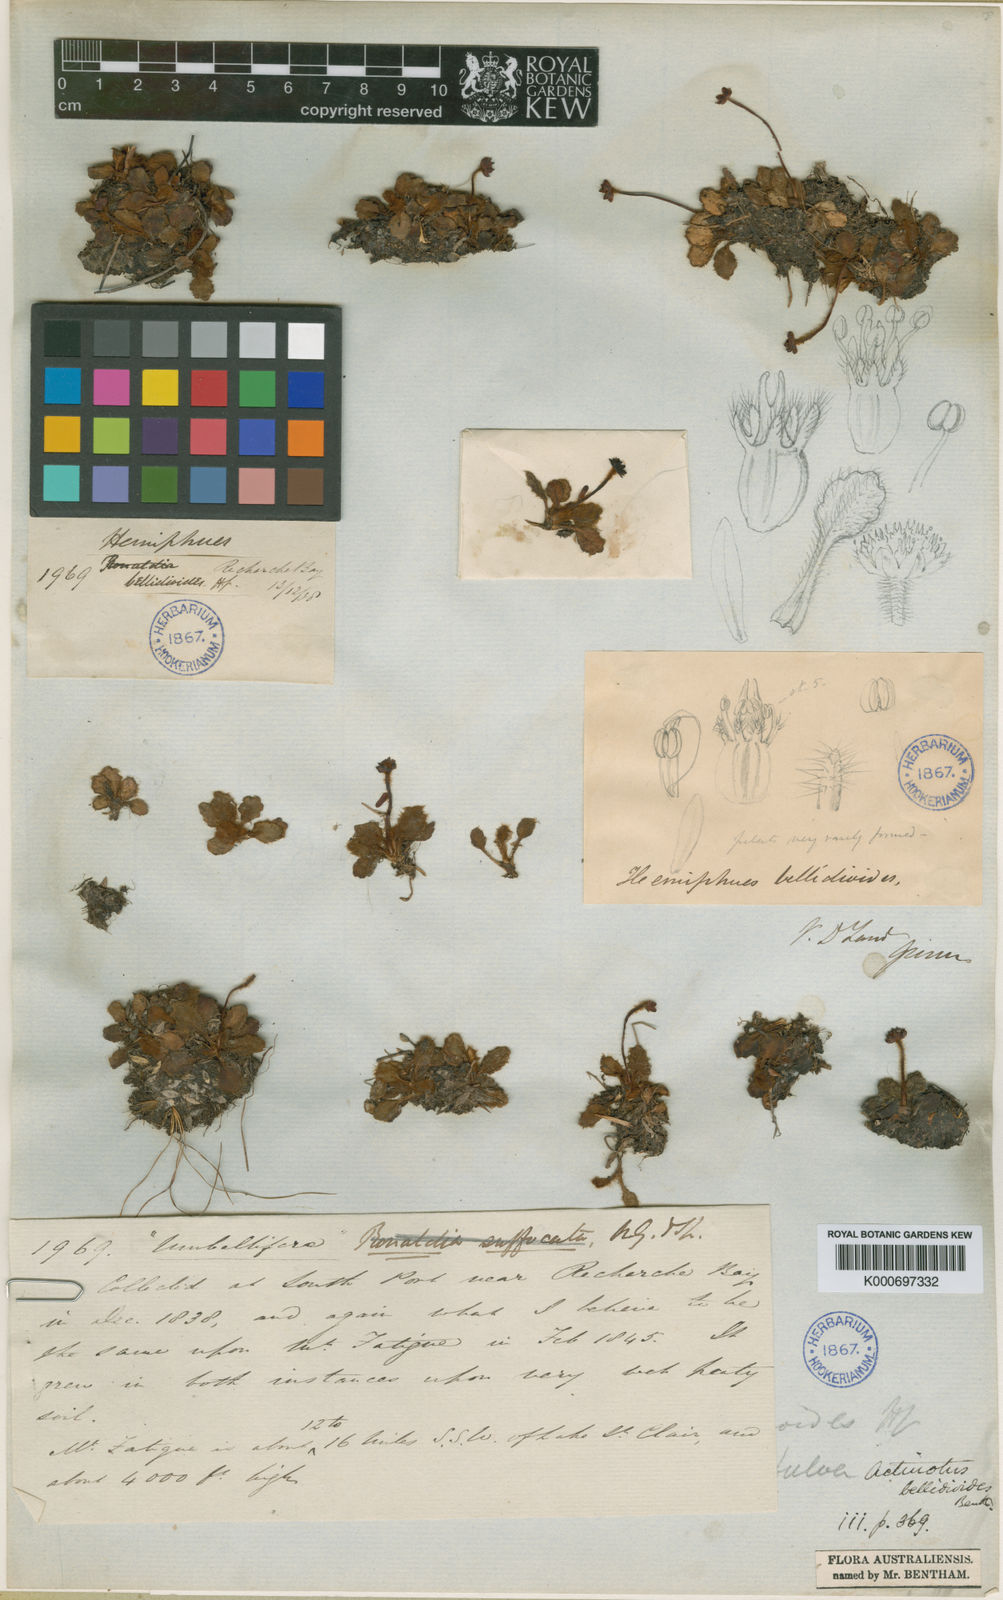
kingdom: Plantae
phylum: Tracheophyta
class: Magnoliopsida
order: Apiales
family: Apiaceae
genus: Actinotus
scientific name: Actinotus bellidioides
